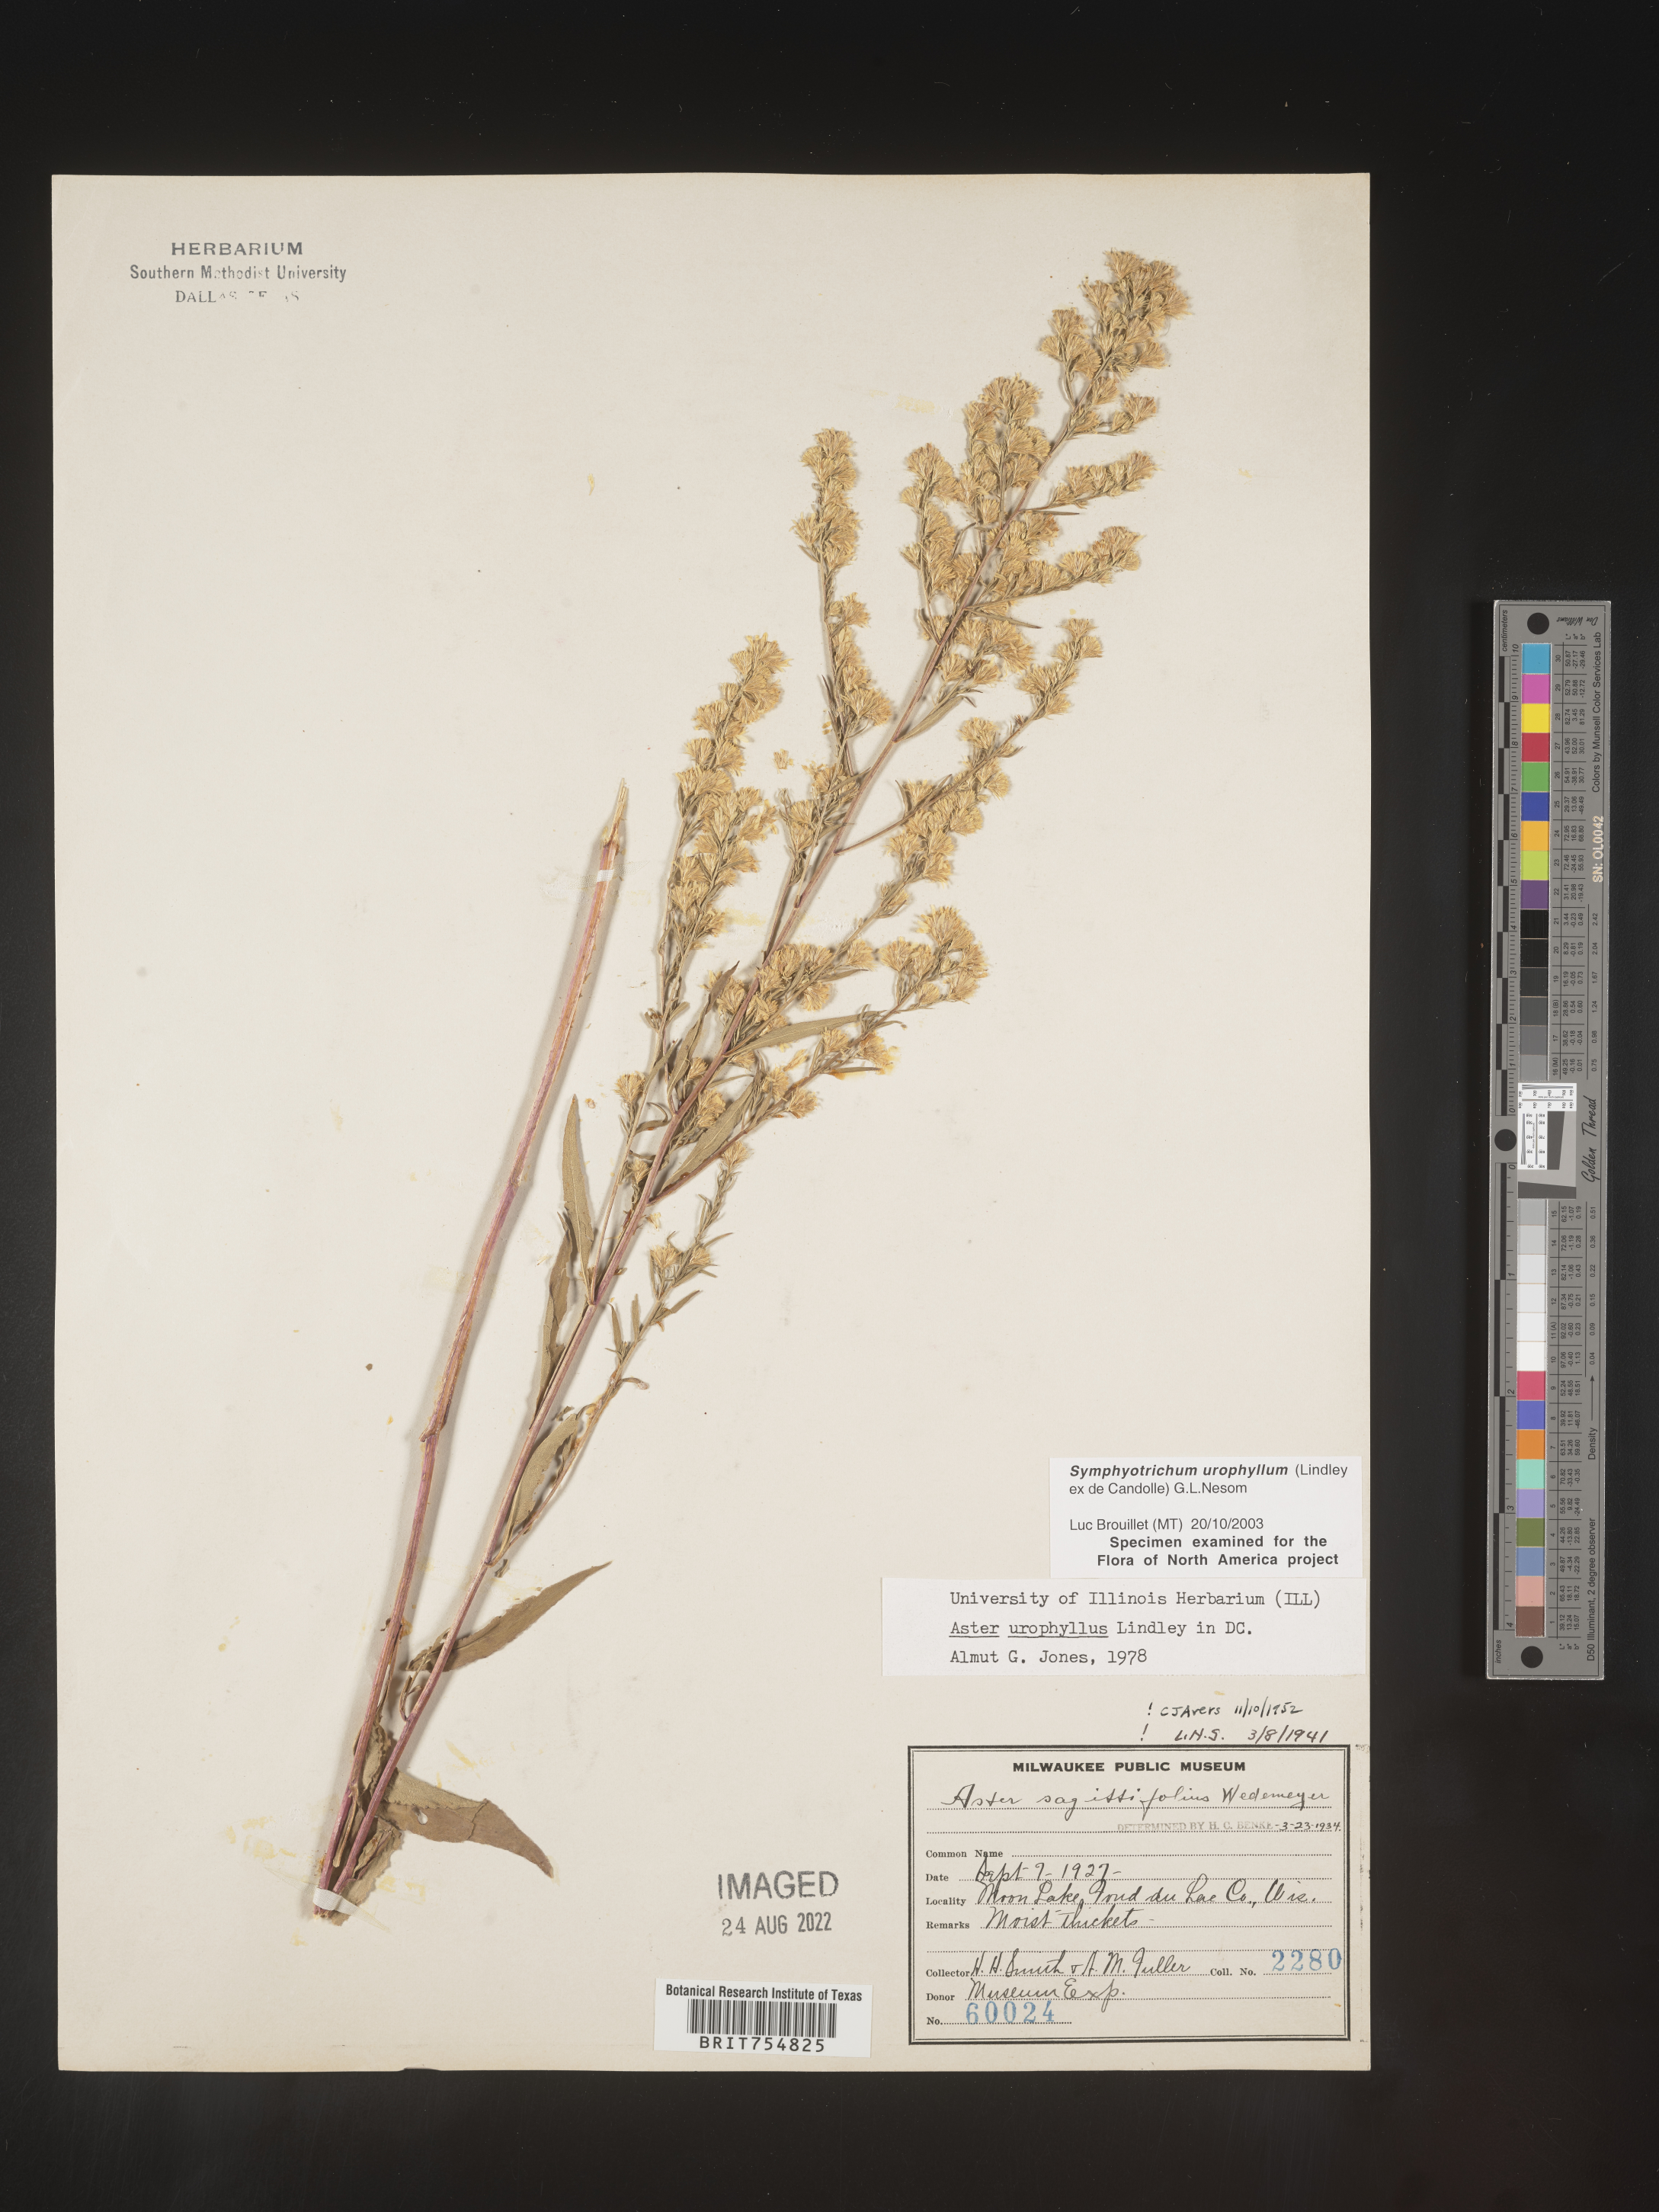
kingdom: Plantae
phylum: Tracheophyta
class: Magnoliopsida
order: Asterales
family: Asteraceae
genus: Symphyotrichum
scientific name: Symphyotrichum urophyllum
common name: Arrow-leaved aster
